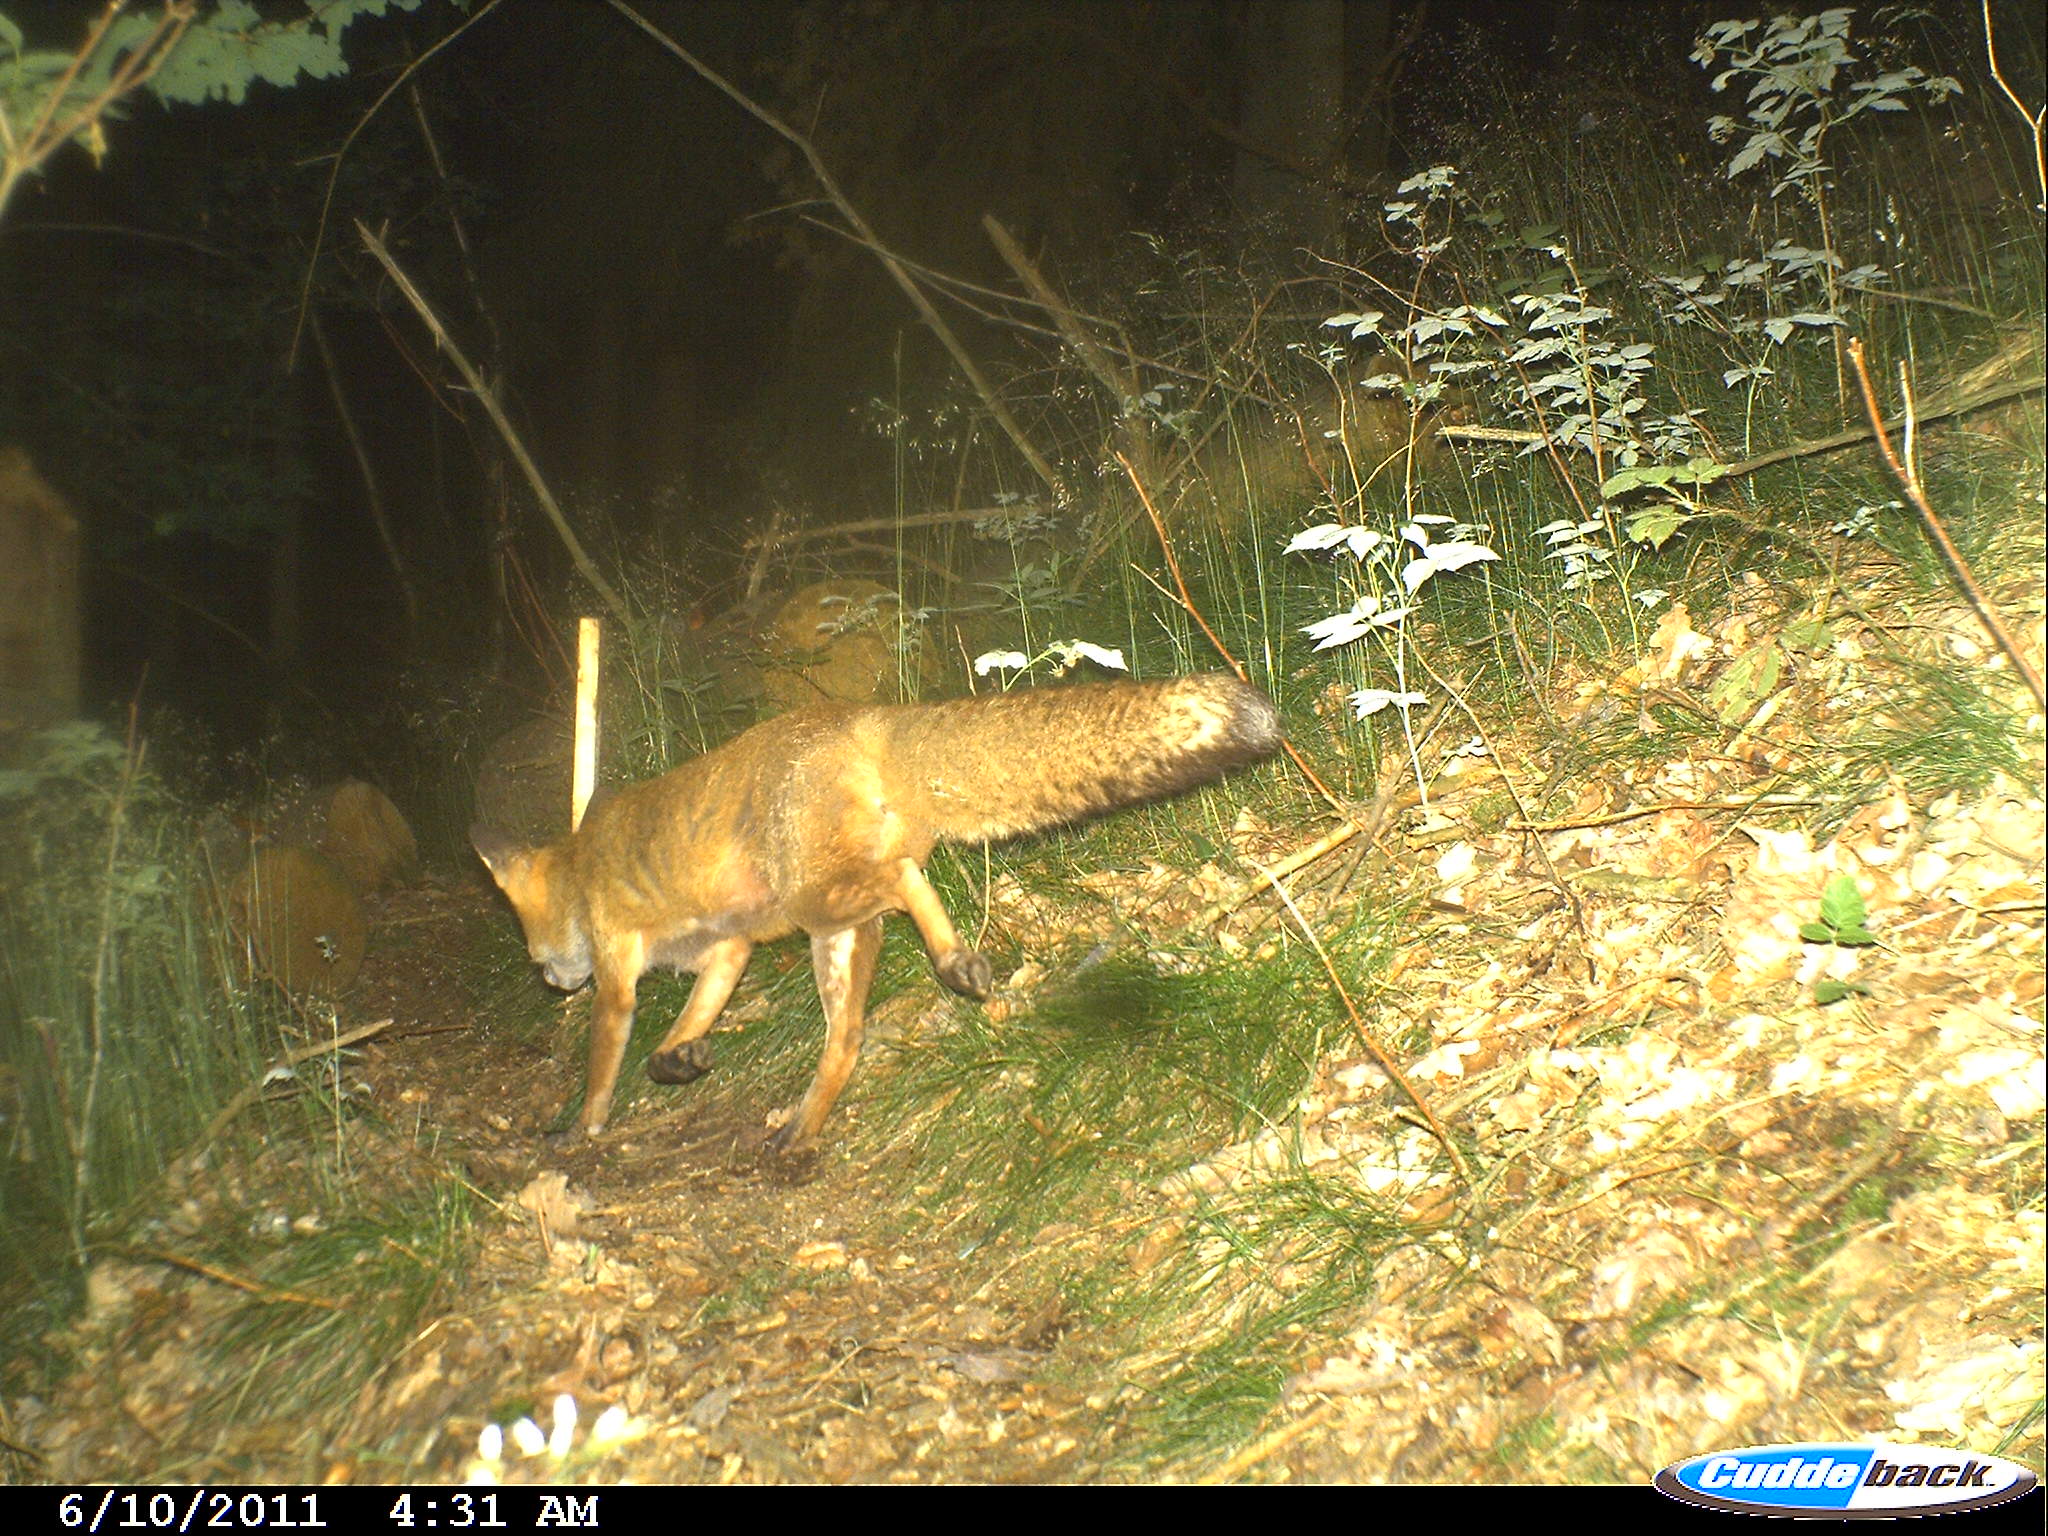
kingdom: Animalia
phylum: Chordata
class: Mammalia
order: Carnivora
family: Canidae
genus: Vulpes
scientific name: Vulpes vulpes
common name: Red fox
